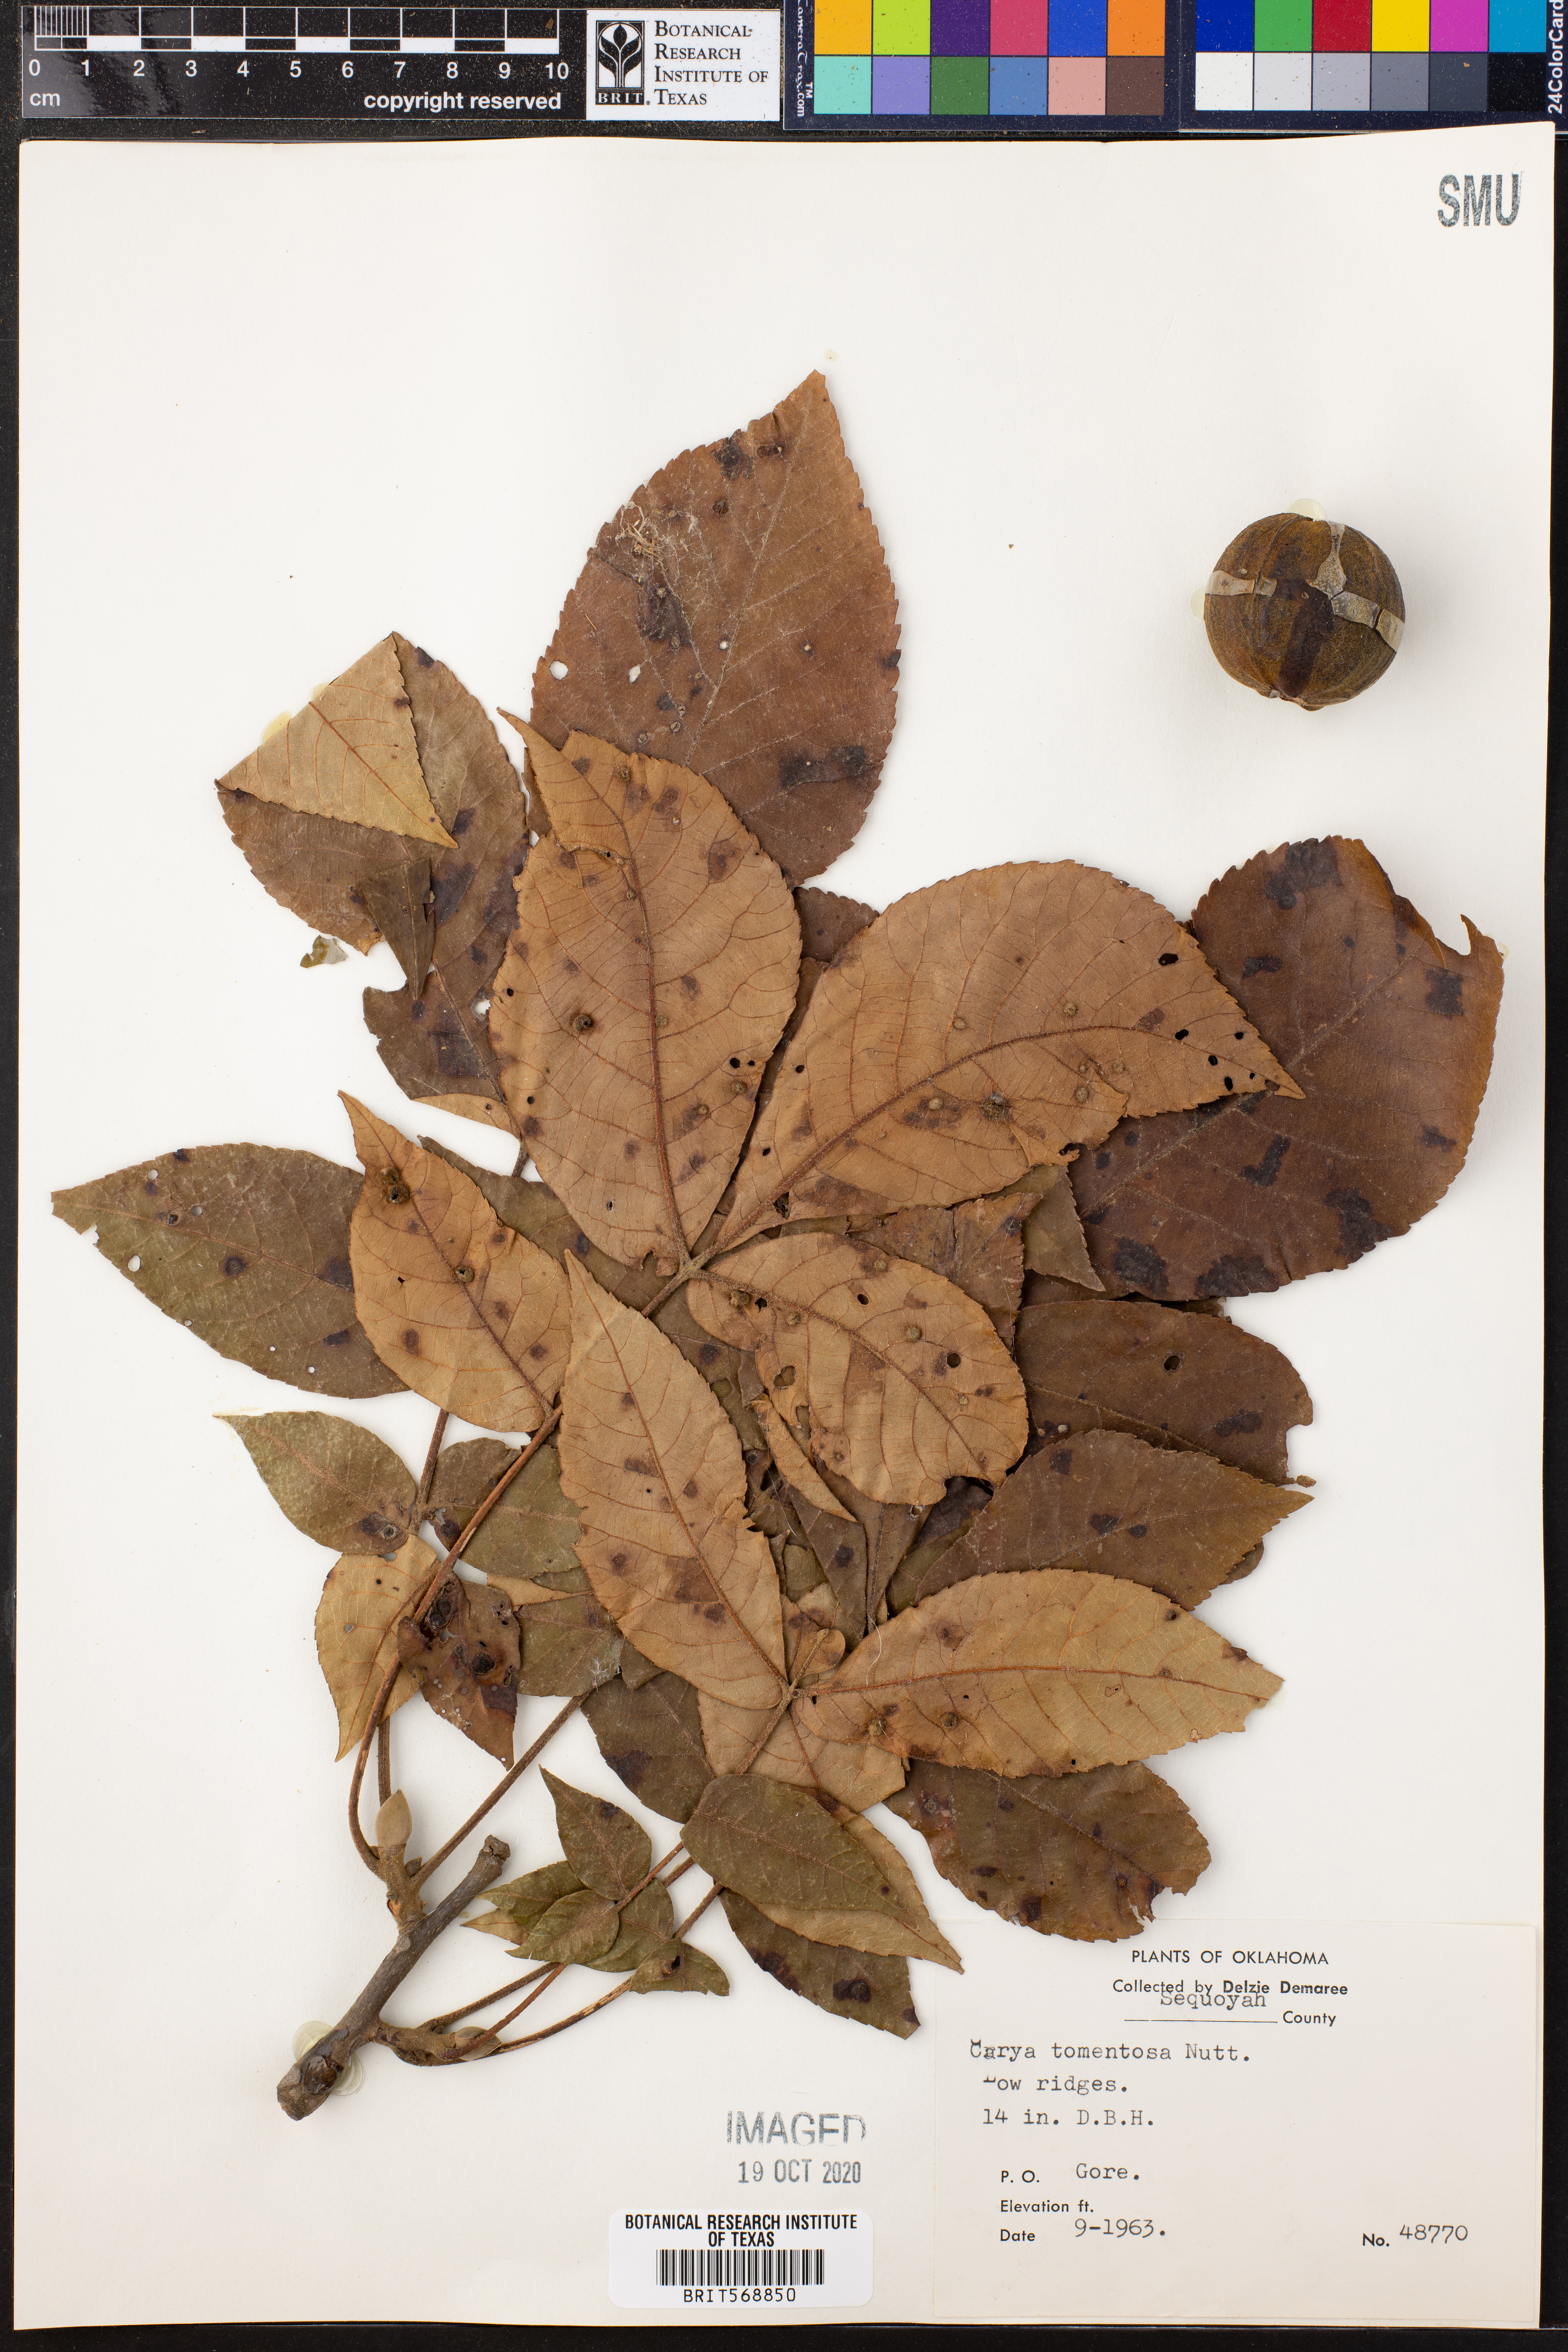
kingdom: Plantae
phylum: Tracheophyta
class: Magnoliopsida
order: Fagales
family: Juglandaceae
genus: Carya
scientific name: Carya alba
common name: Mockernut hickory
